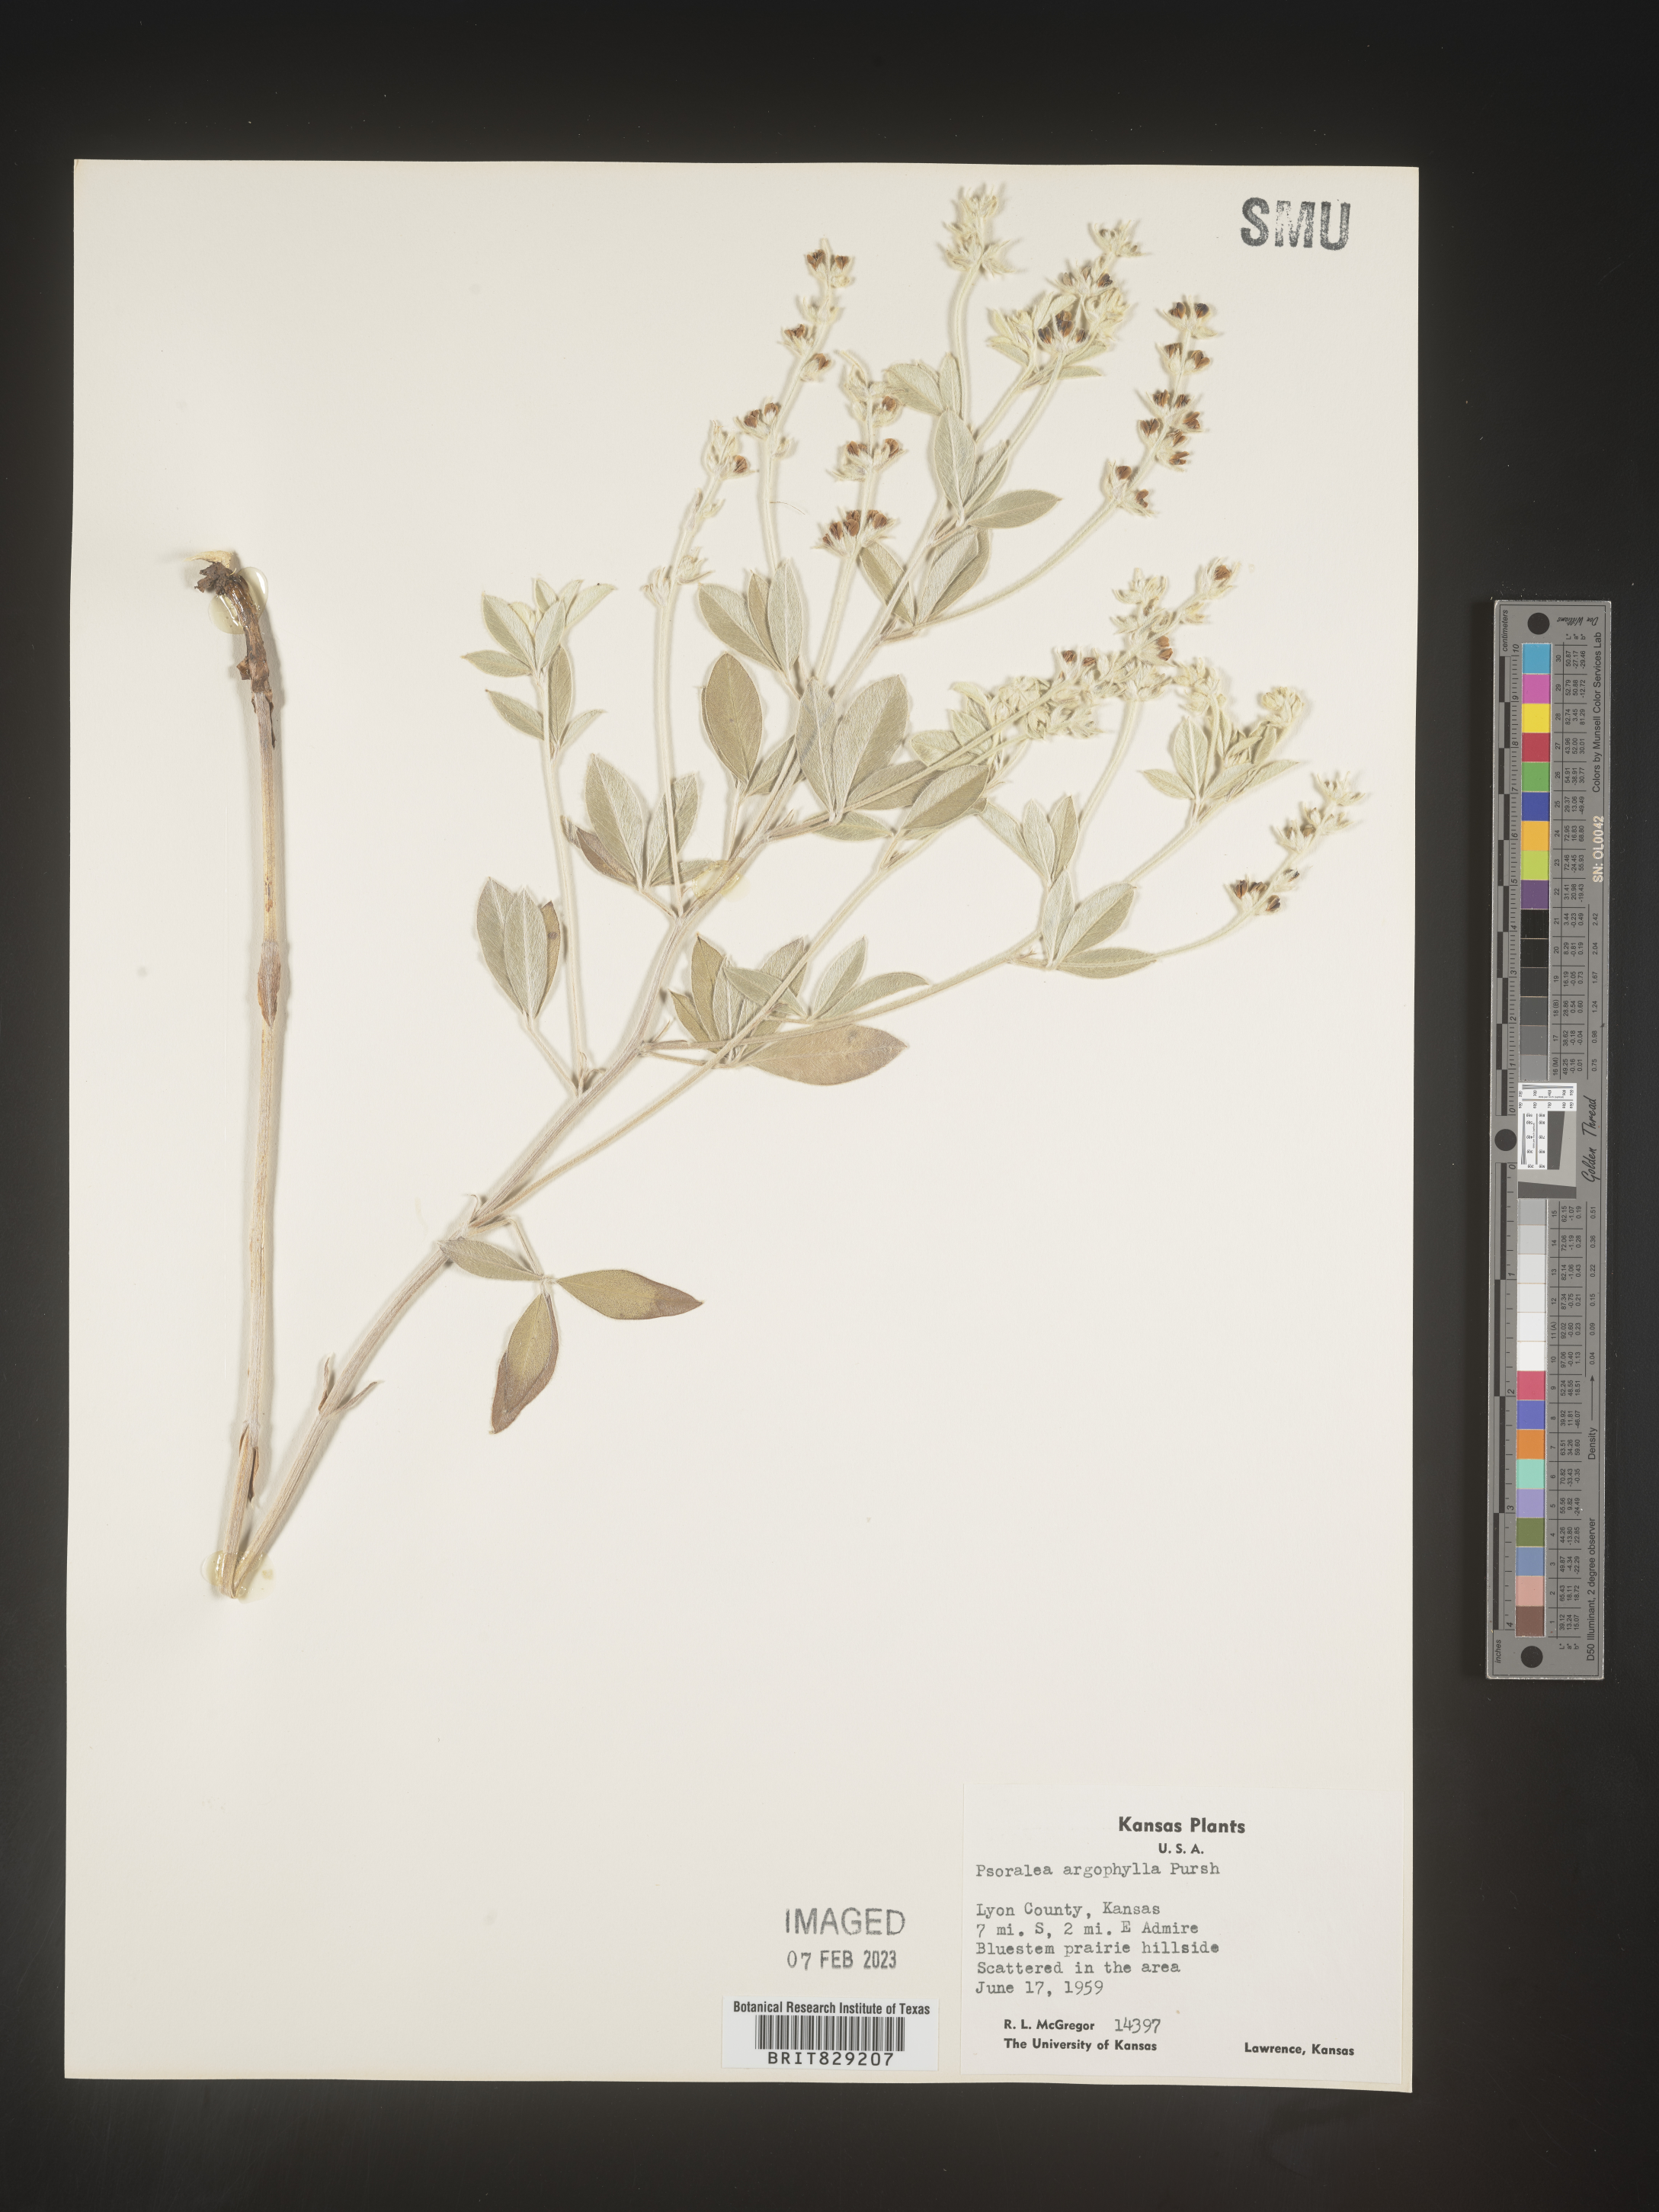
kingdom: Plantae
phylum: Tracheophyta
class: Magnoliopsida
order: Fabales
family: Fabaceae
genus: Pediomelum
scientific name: Pediomelum argophyllum
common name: Silver-leaved indian breadroot
